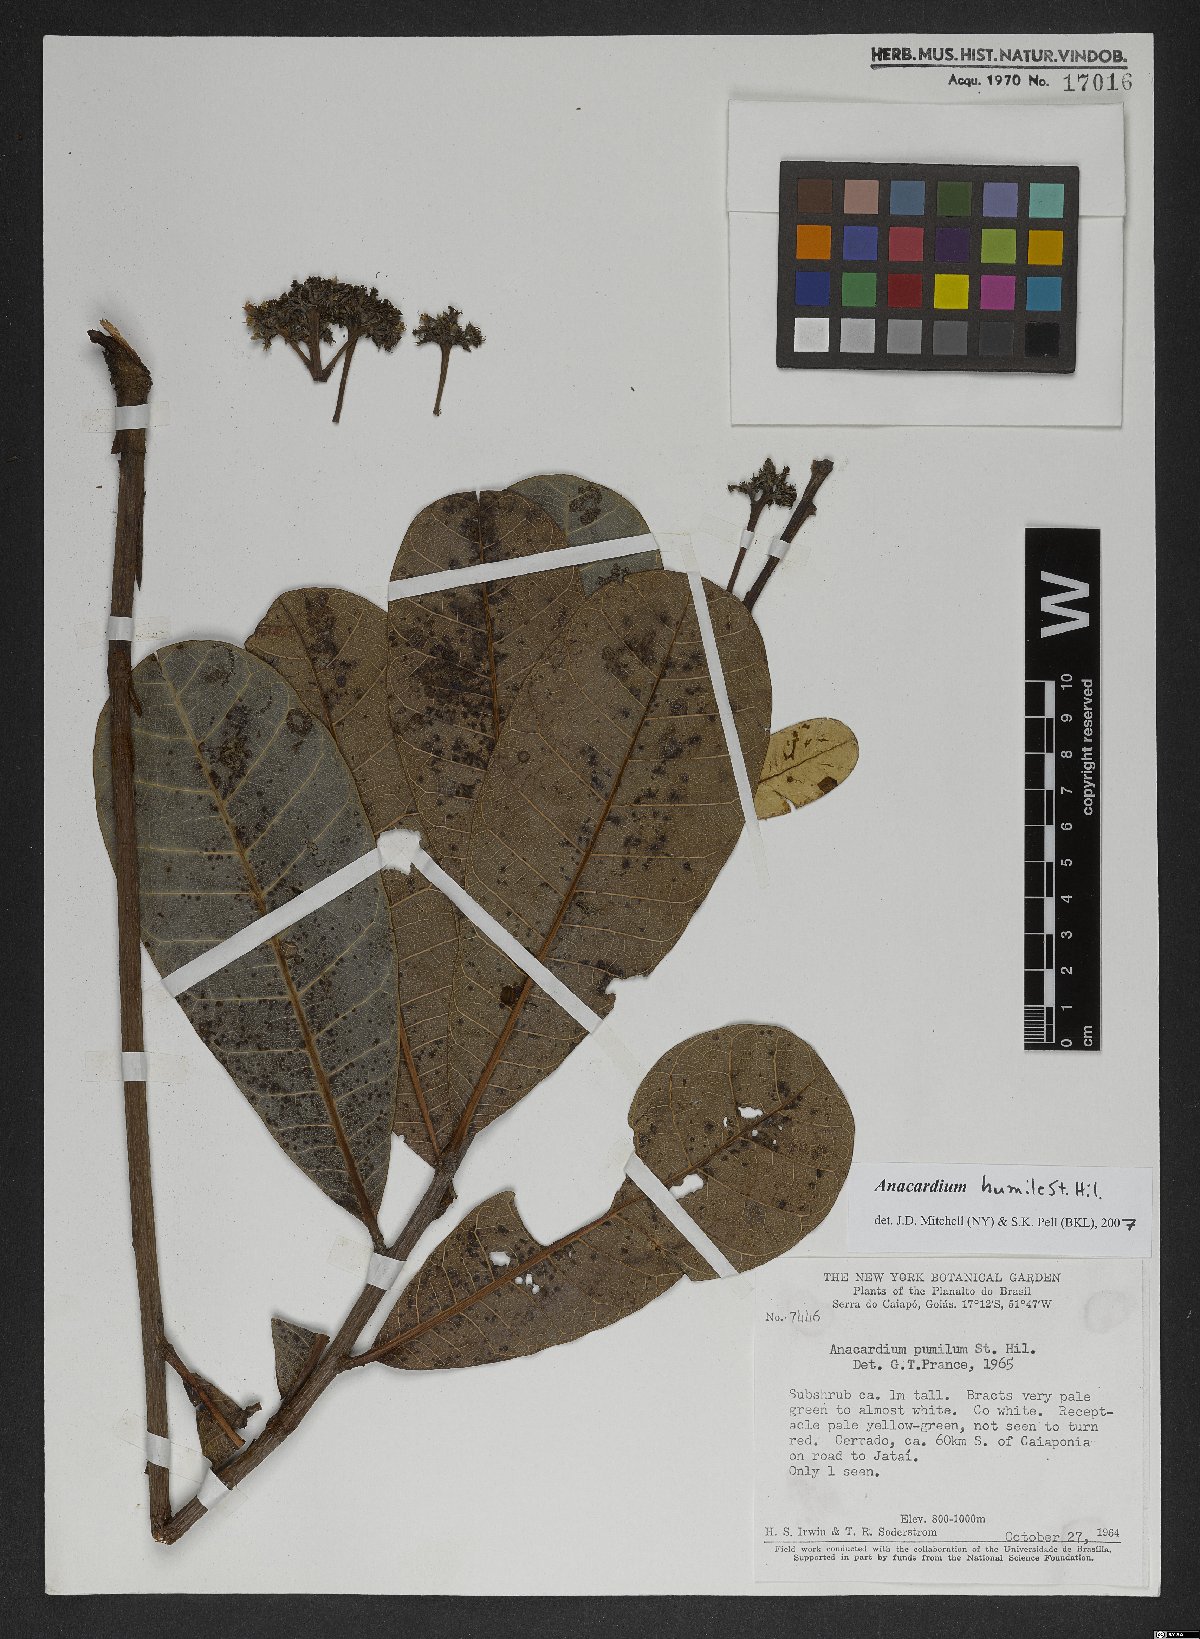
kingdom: Plantae
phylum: Tracheophyta
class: Magnoliopsida
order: Sapindales
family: Anacardiaceae
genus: Anacardium
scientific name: Anacardium humile
